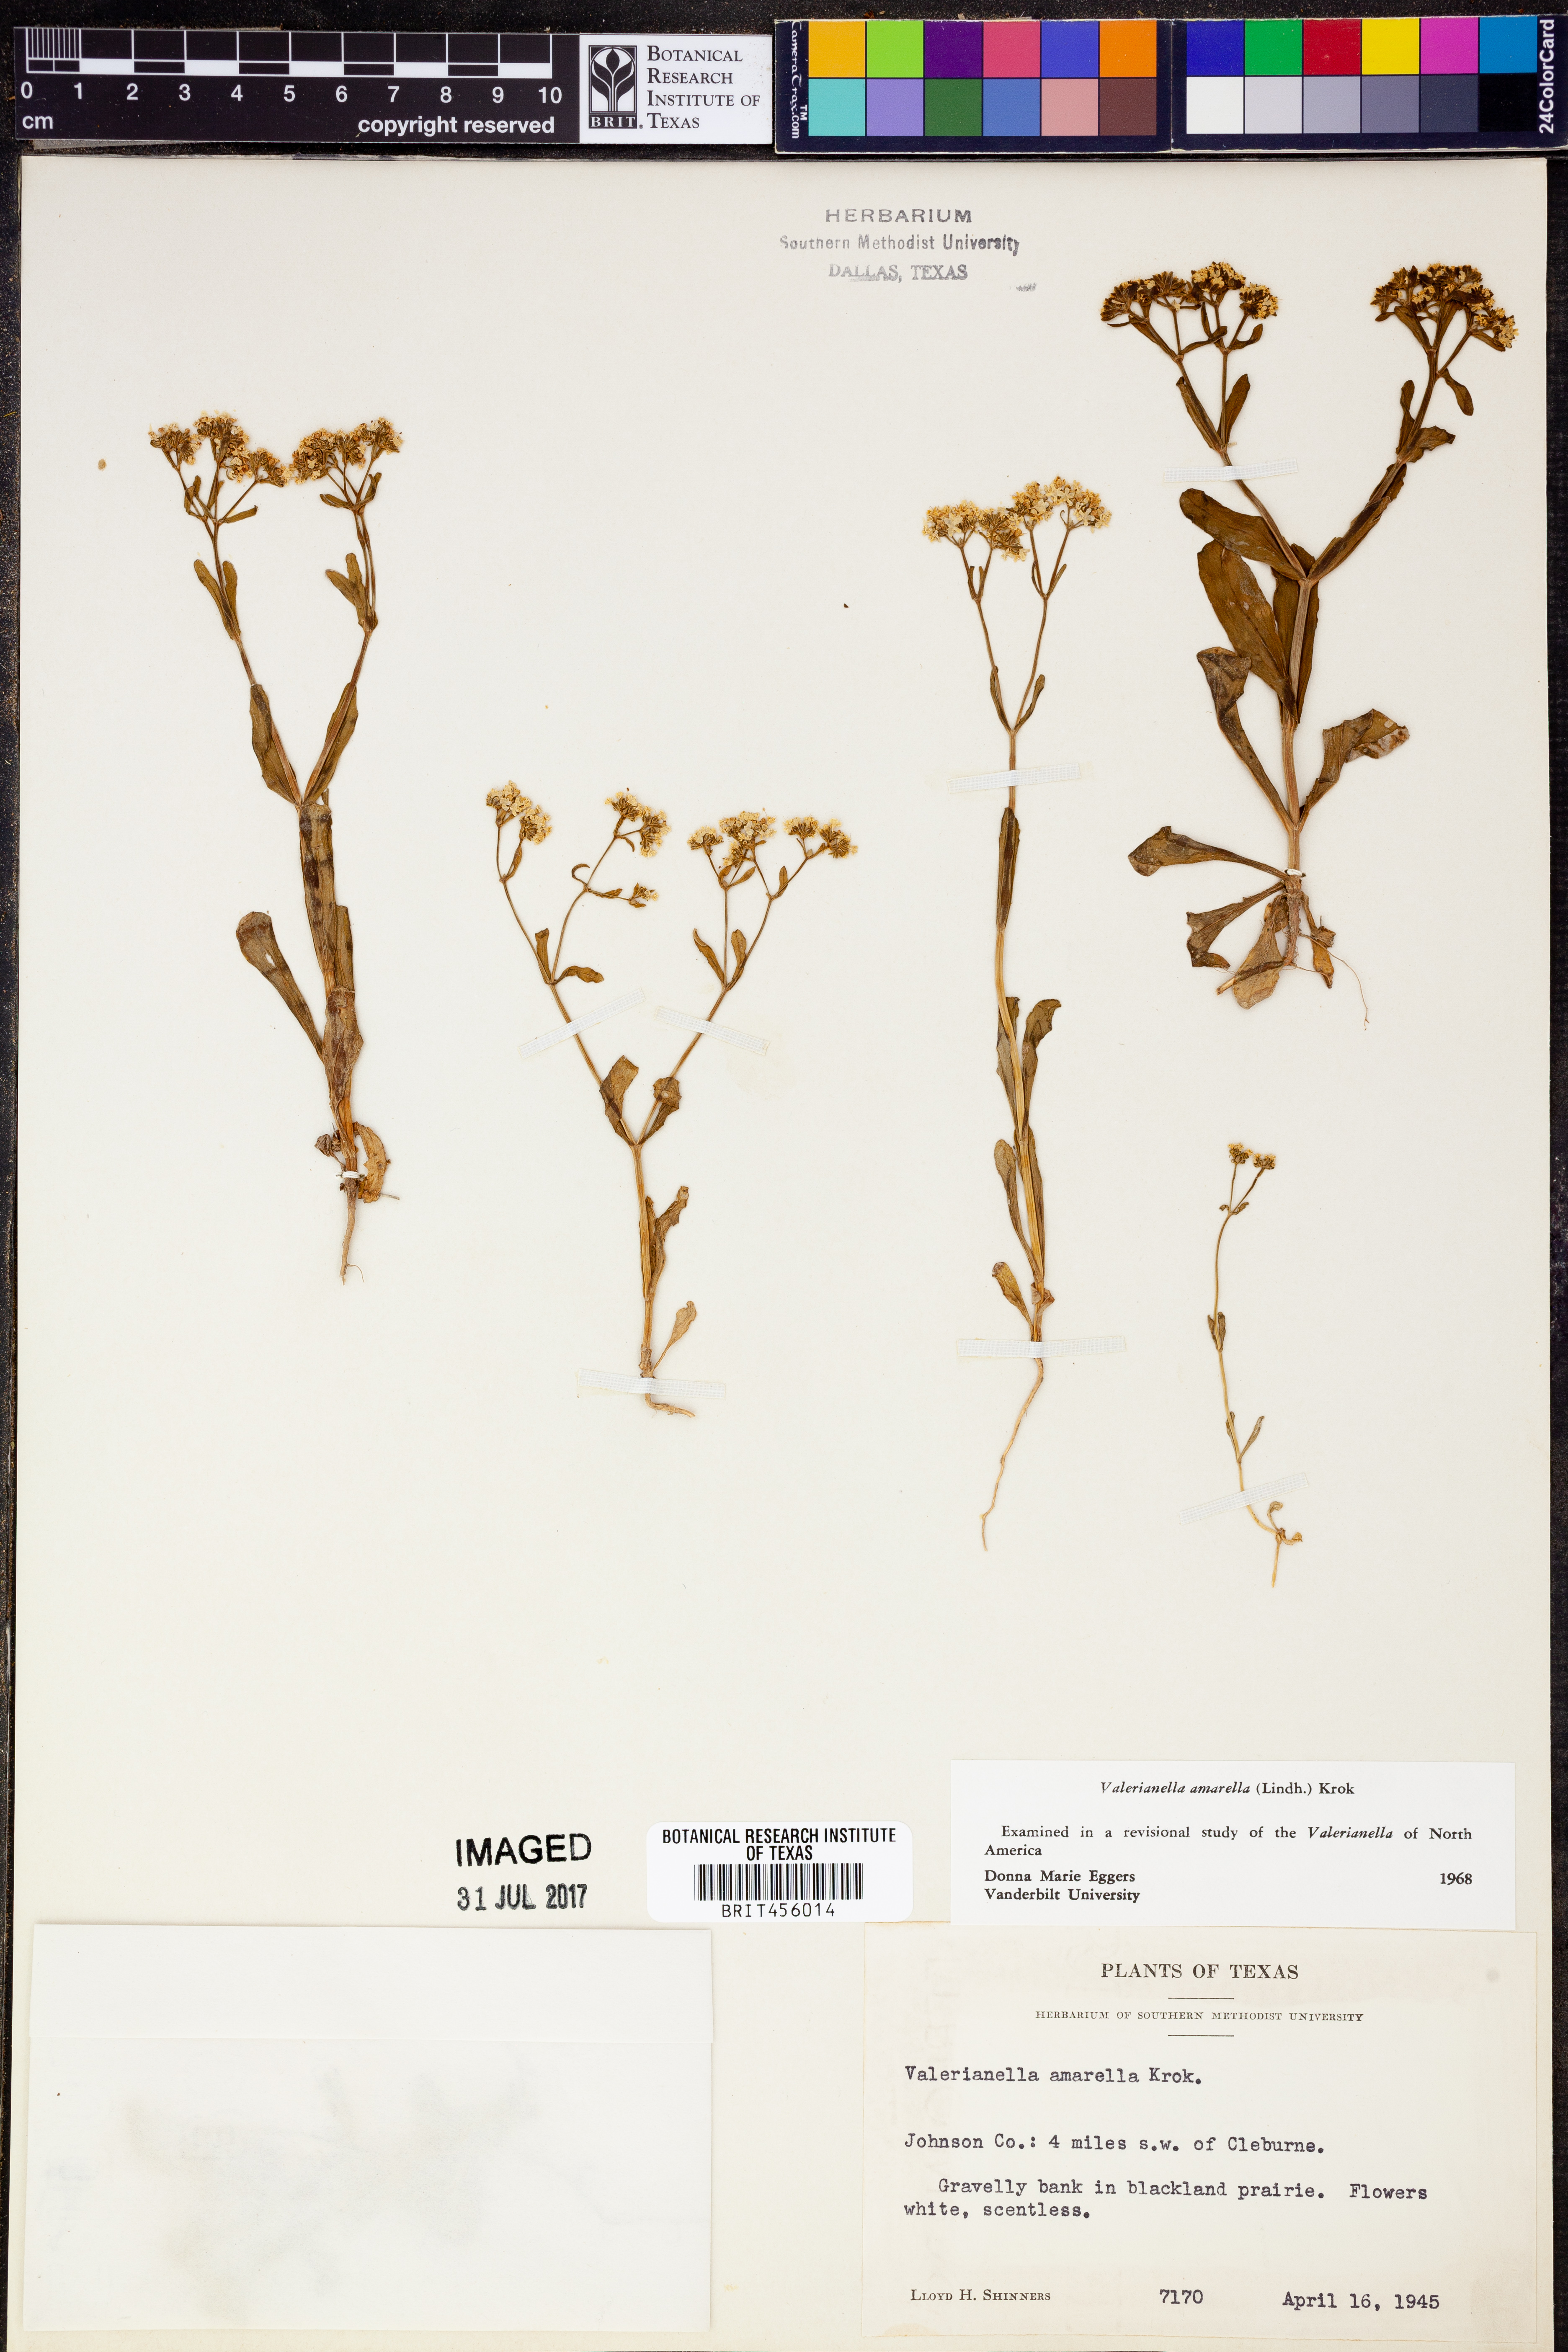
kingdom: Plantae
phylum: Tracheophyta
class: Magnoliopsida
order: Dipsacales
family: Caprifoliaceae
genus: Valerianella
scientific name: Valerianella amarella
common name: Hariy cornsalad
